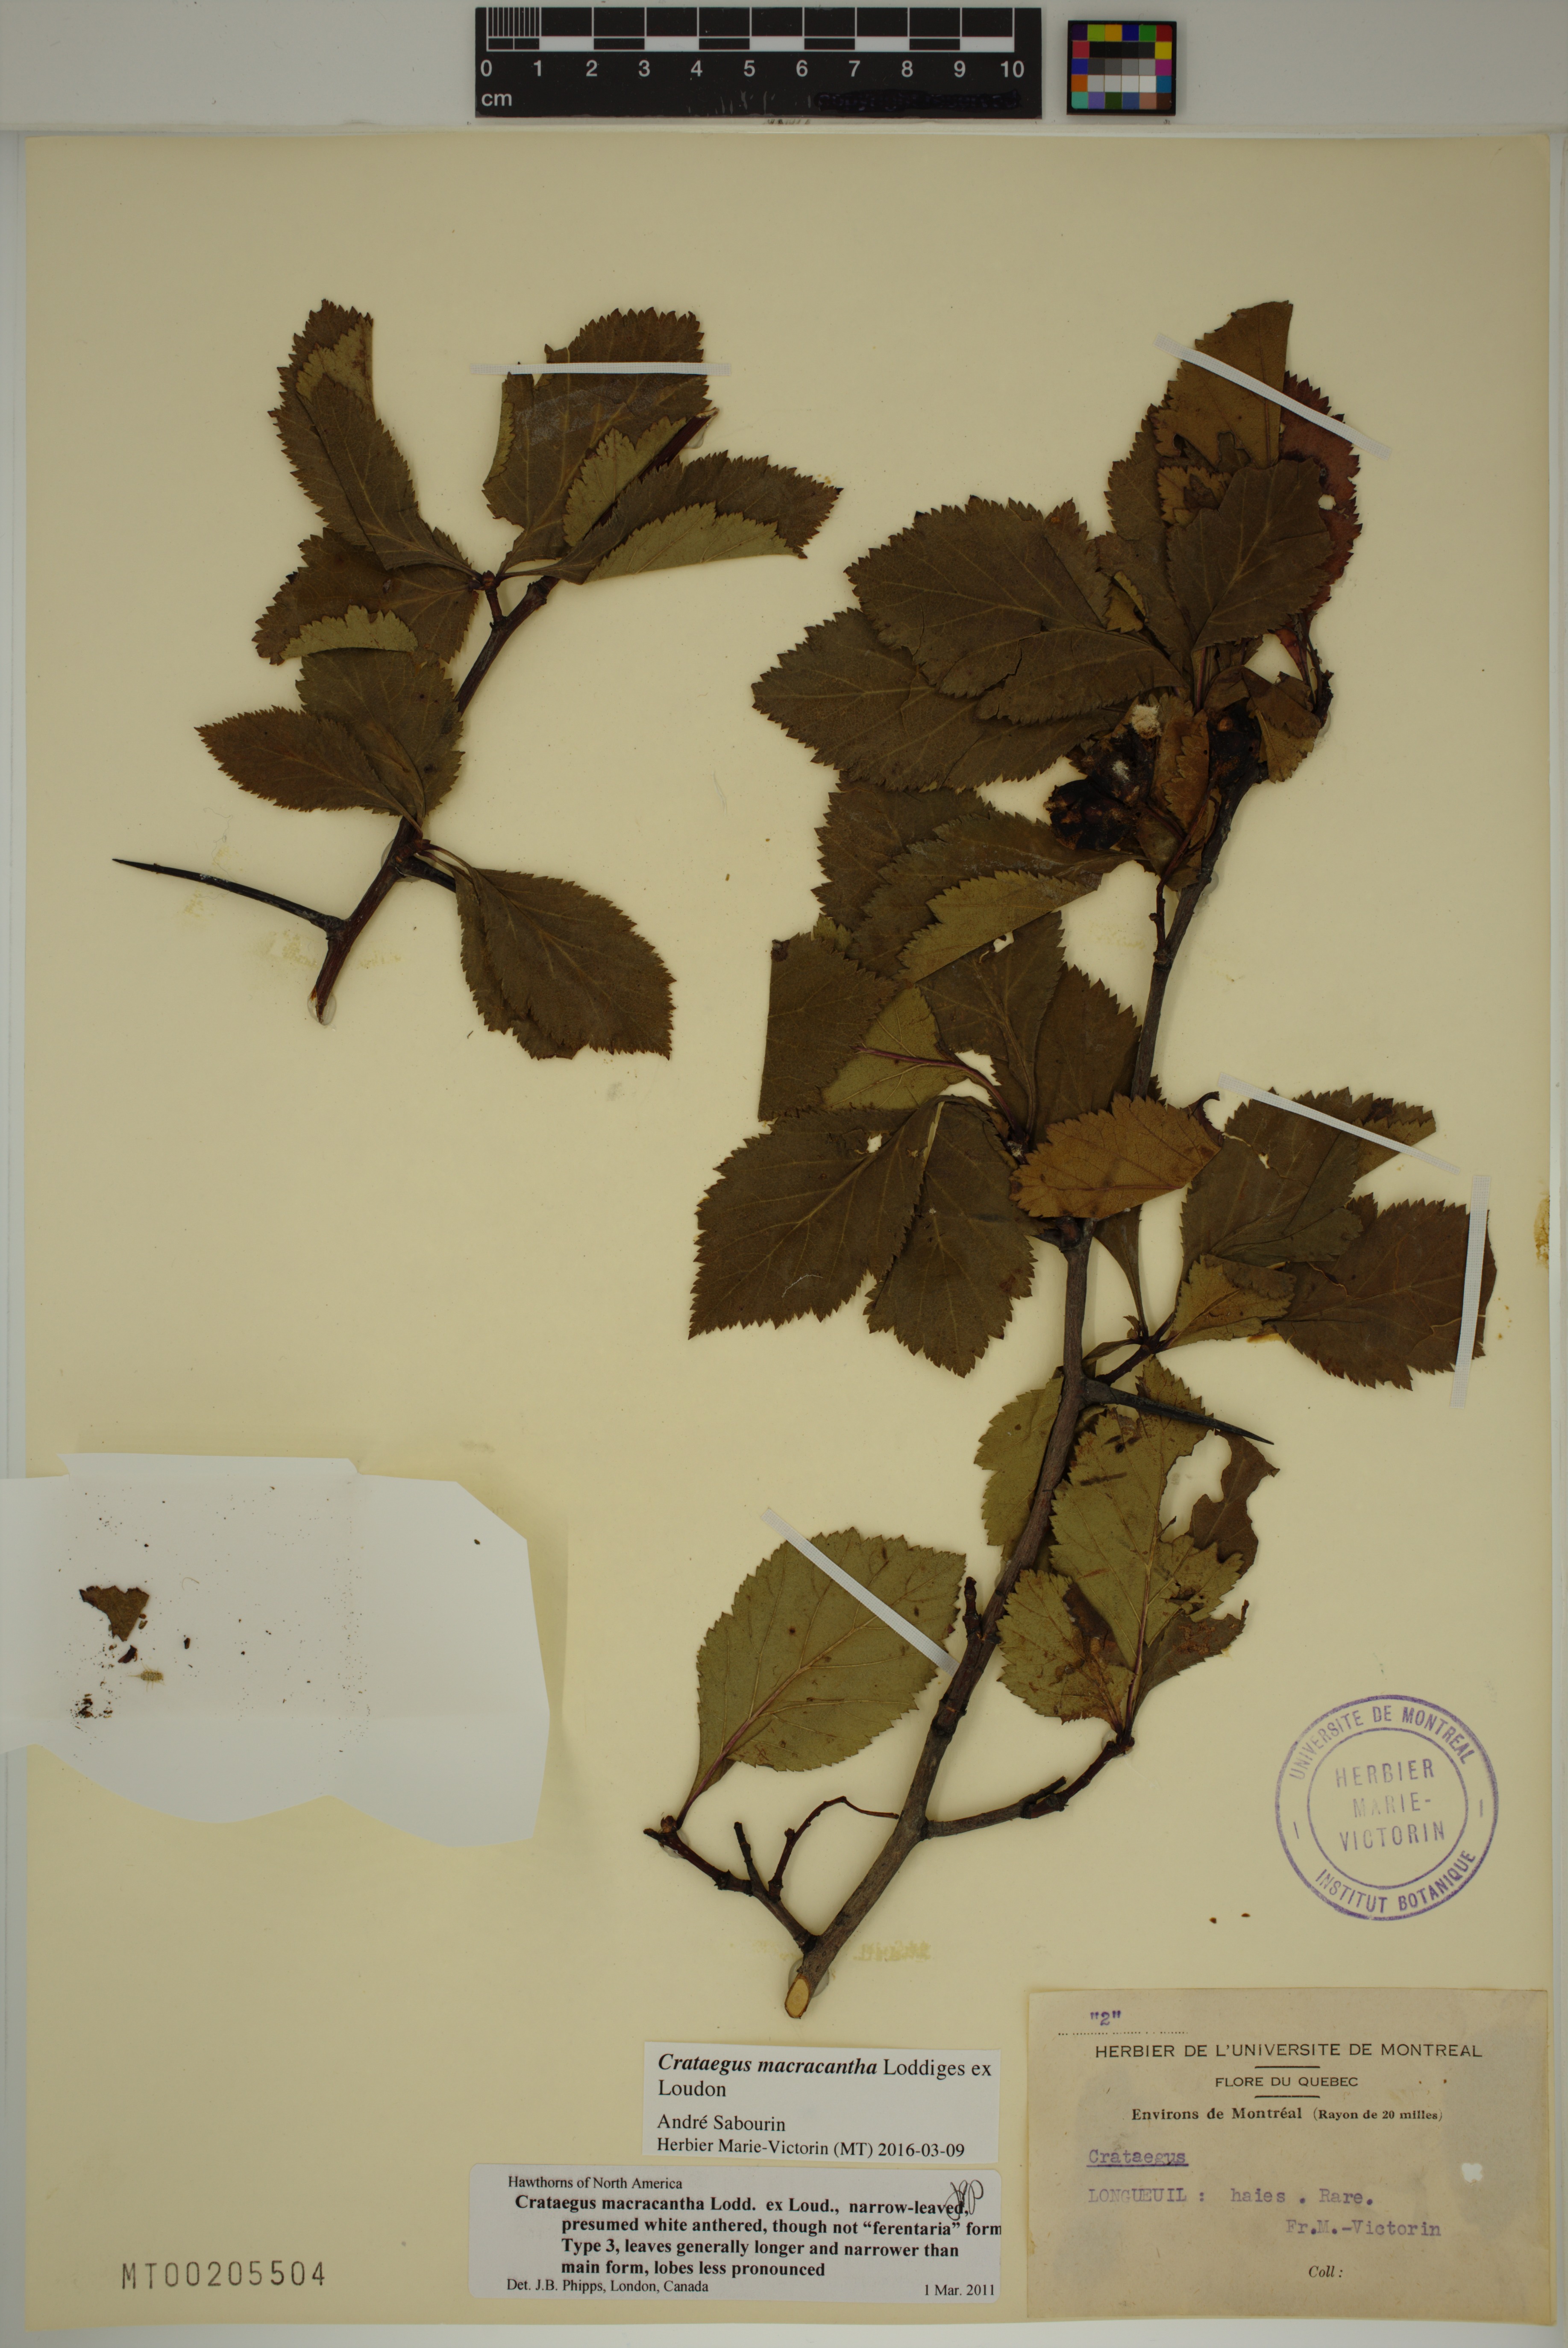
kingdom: Plantae
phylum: Tracheophyta
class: Magnoliopsida
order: Rosales
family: Rosaceae
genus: Crataegus
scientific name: Crataegus macracantha
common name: Large-thorn hawthorn
